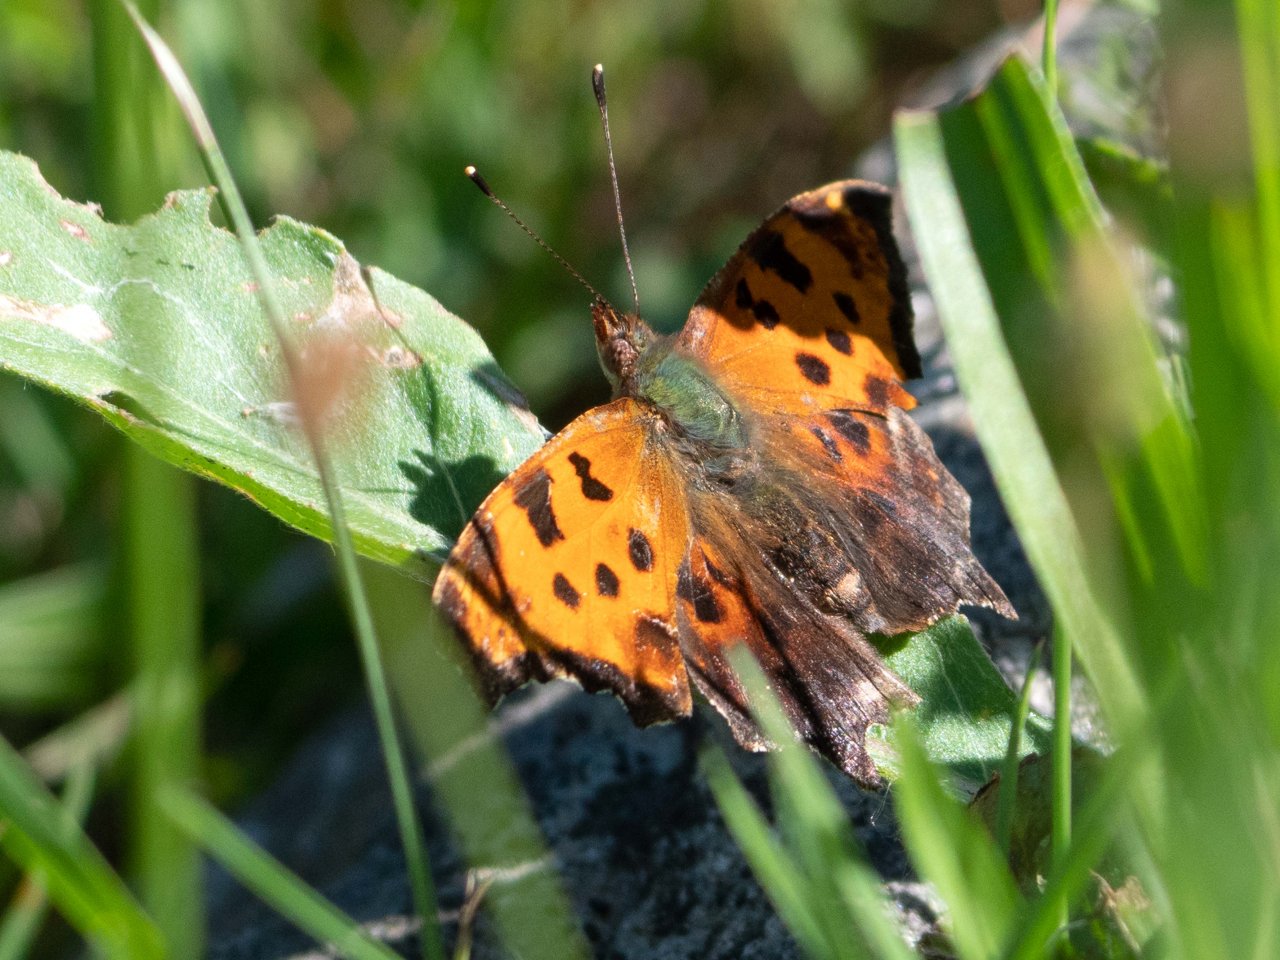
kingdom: Animalia
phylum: Arthropoda
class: Insecta
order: Lepidoptera
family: Nymphalidae
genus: Polygonia
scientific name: Polygonia comma
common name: Eastern Comma
